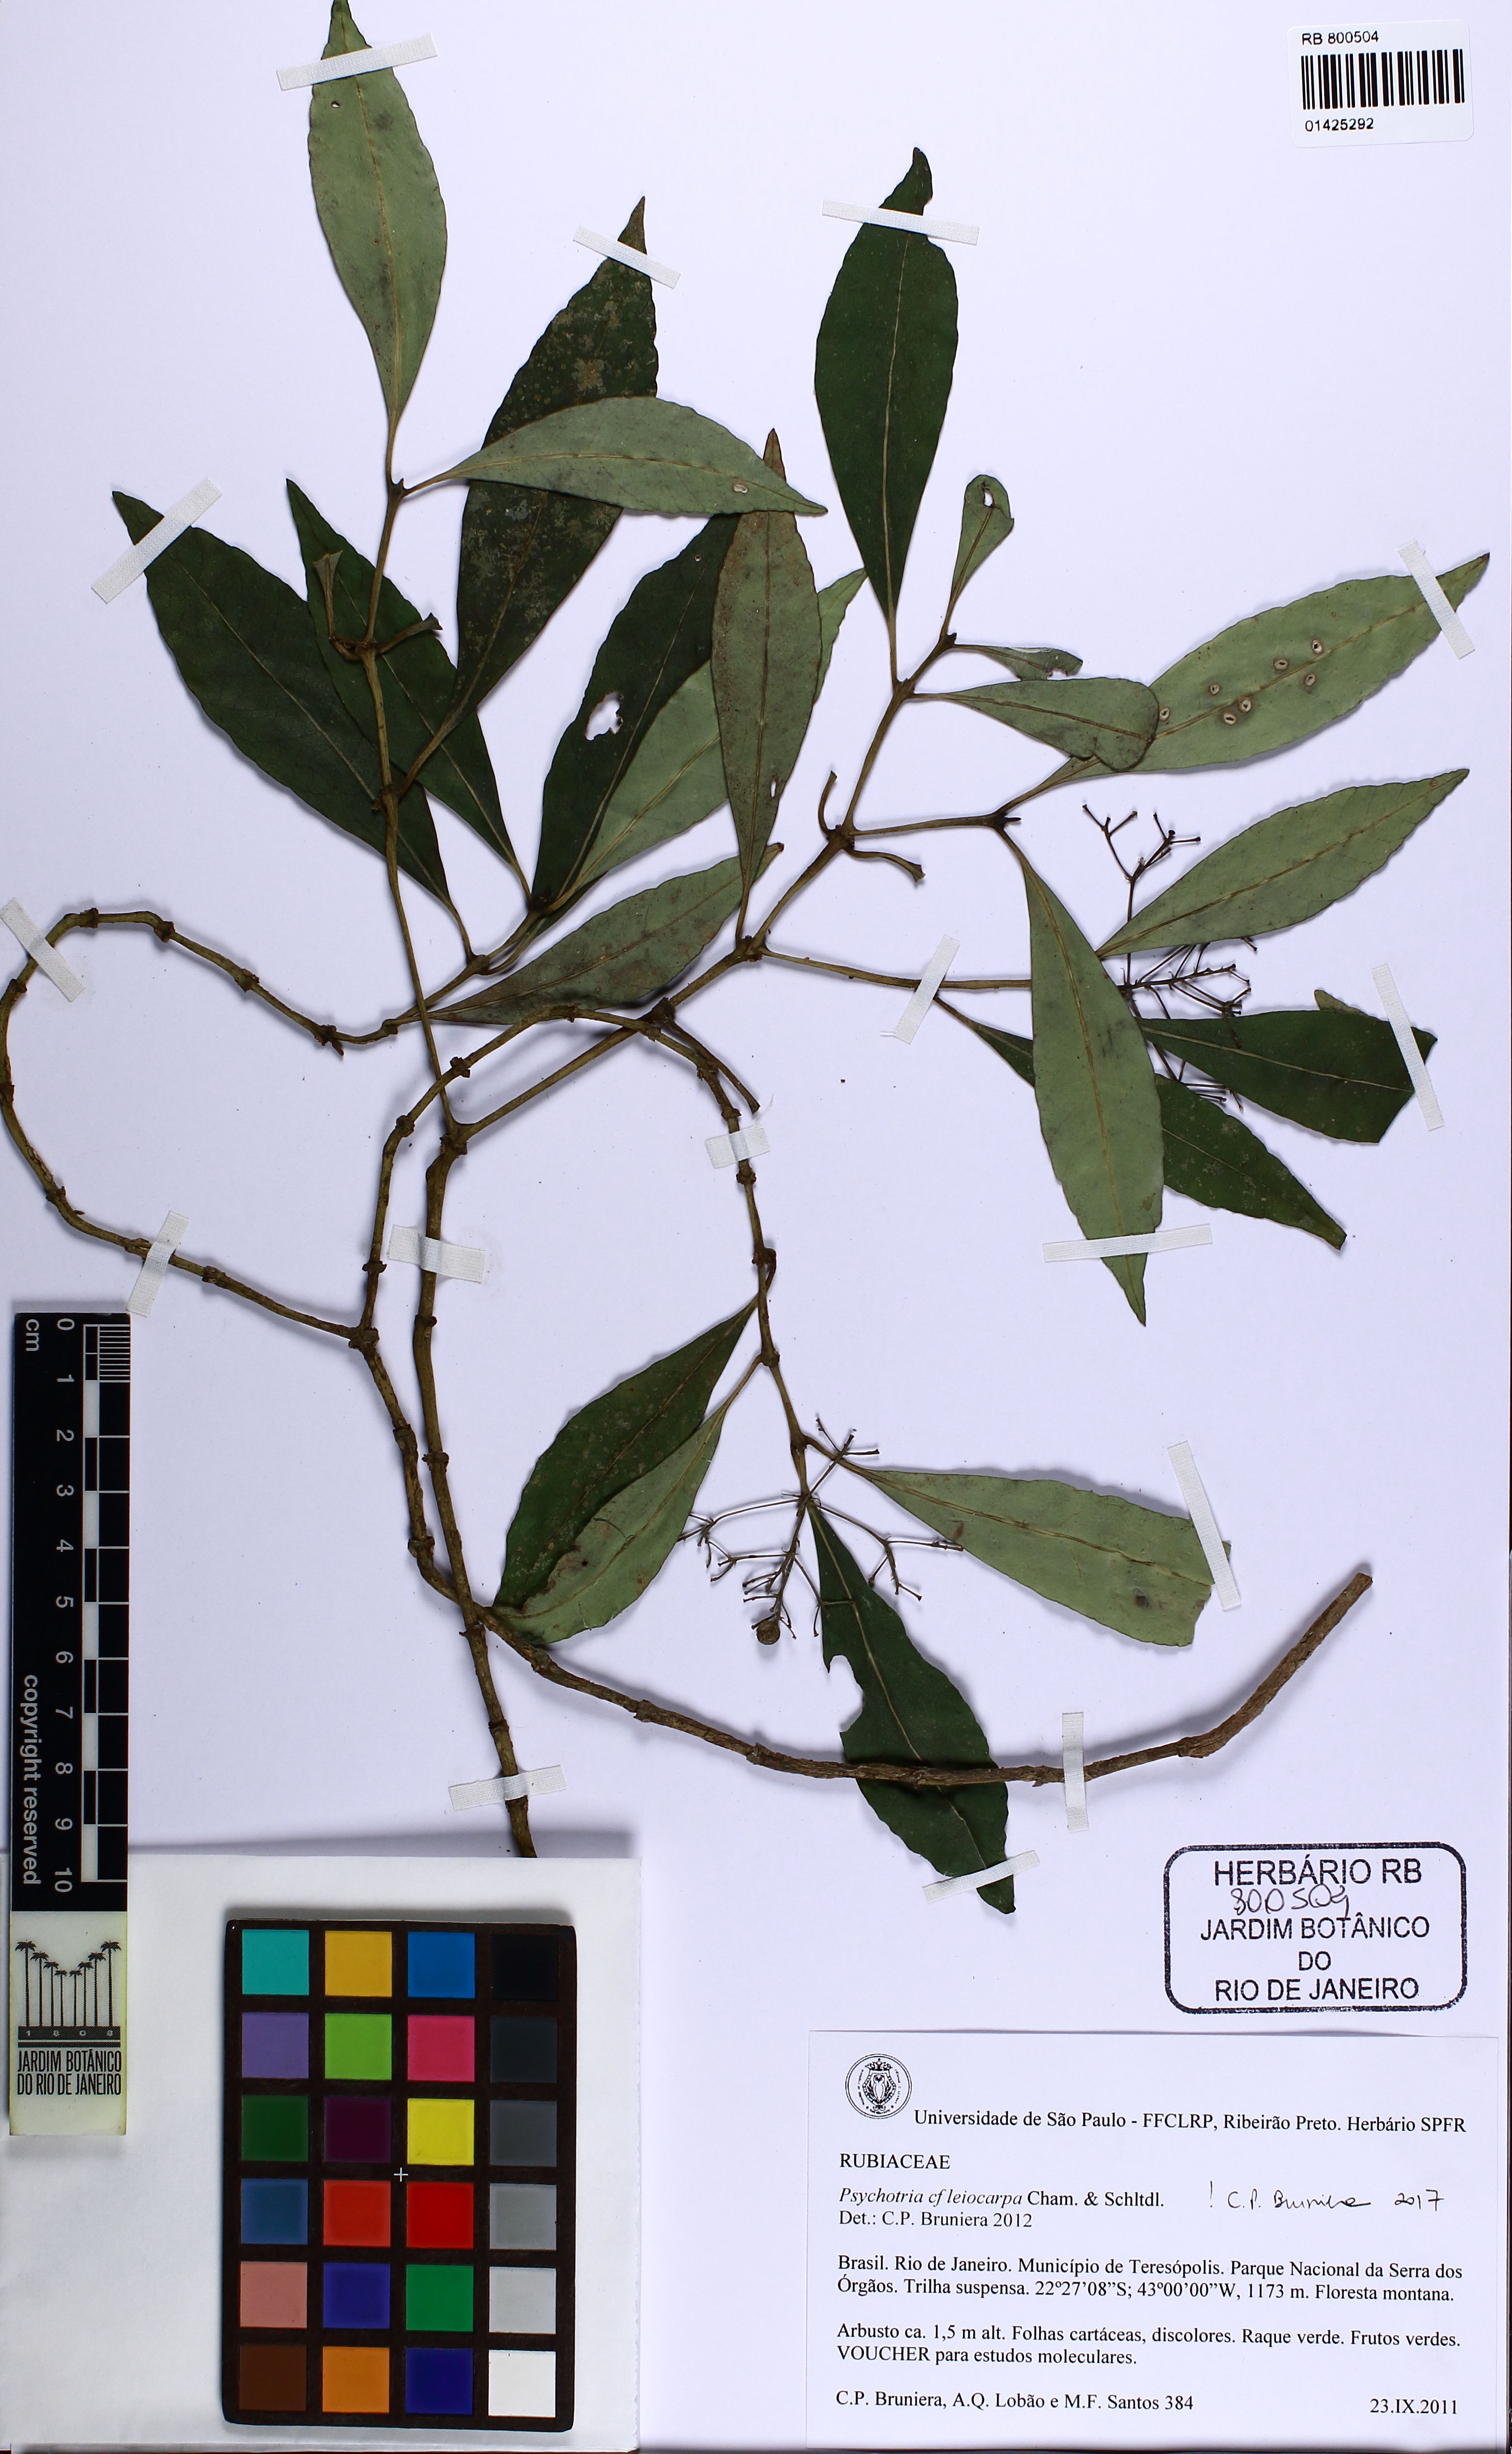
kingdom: Plantae
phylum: Tracheophyta
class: Magnoliopsida
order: Gentianales
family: Rubiaceae
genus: Psychotria
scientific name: Psychotria leiocarpa
